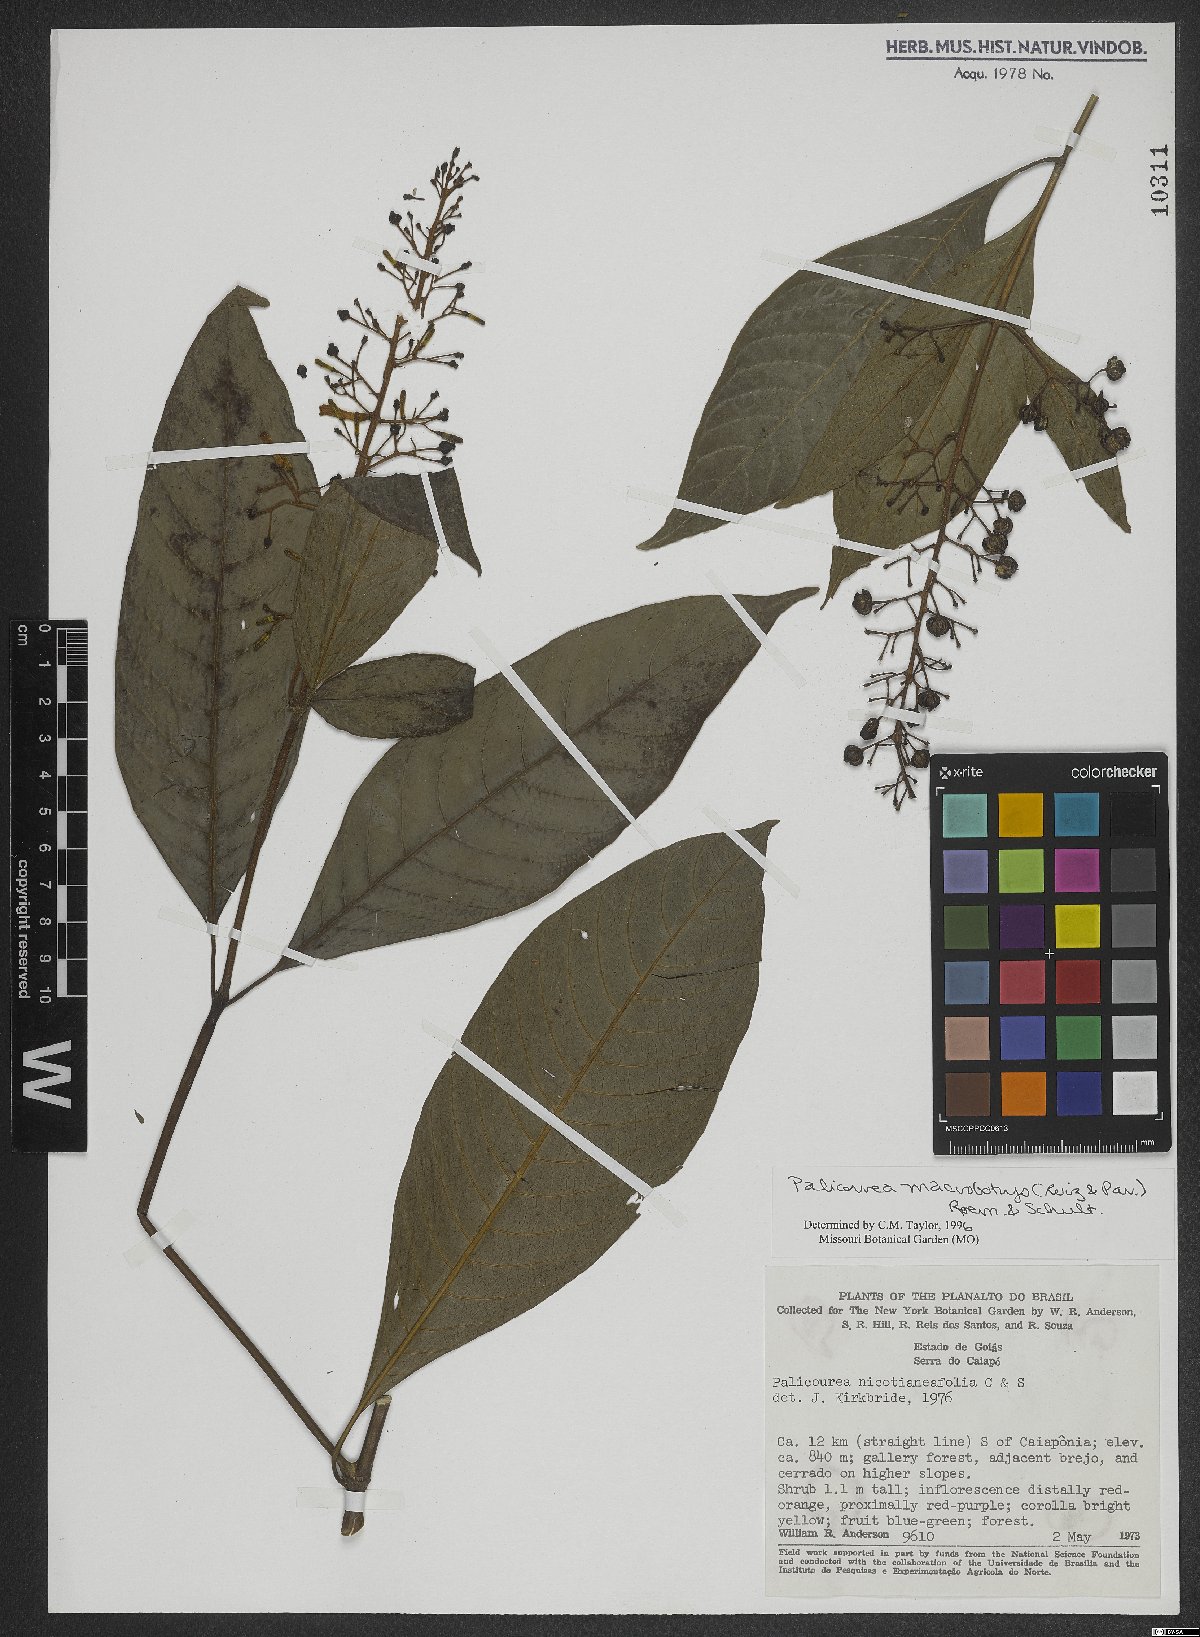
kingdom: Plantae
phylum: Tracheophyta
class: Magnoliopsida
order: Gentianales
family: Rubiaceae
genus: Palicourea
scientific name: Palicourea macrobotrys
